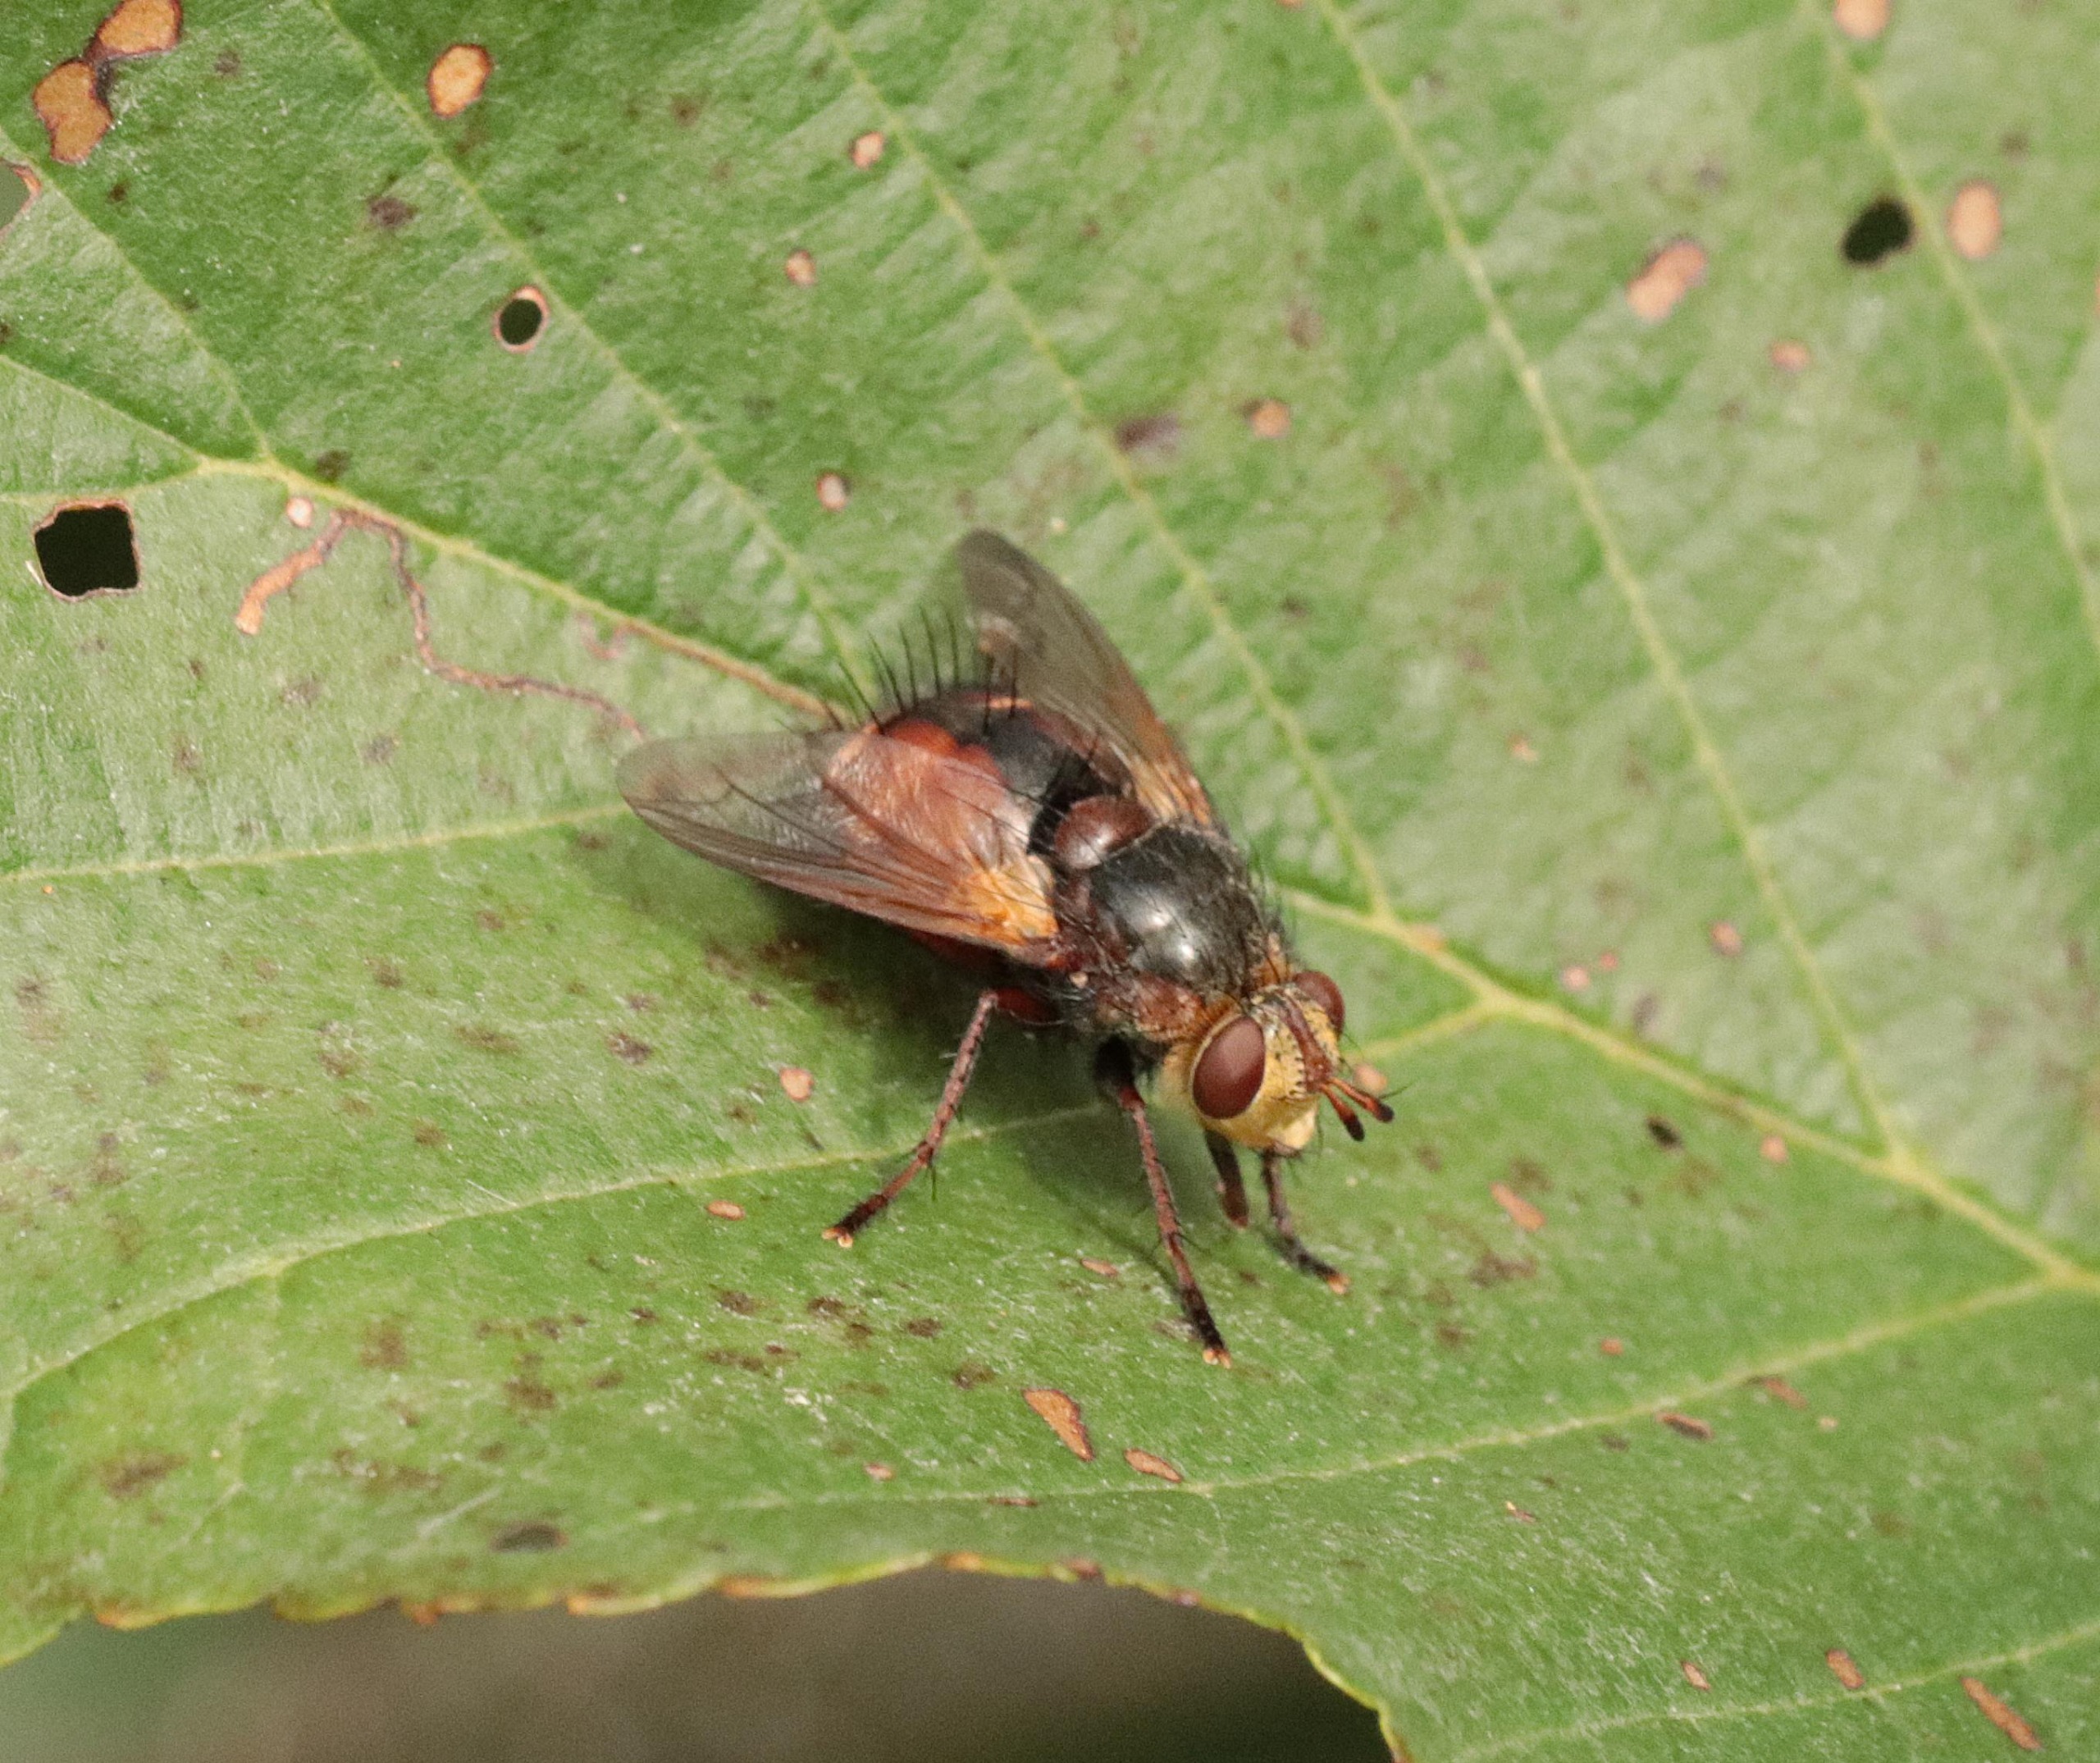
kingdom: Animalia
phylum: Arthropoda
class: Insecta
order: Diptera
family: Tachinidae
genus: Tachina
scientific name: Tachina fera
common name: Mellemfluen oskar
